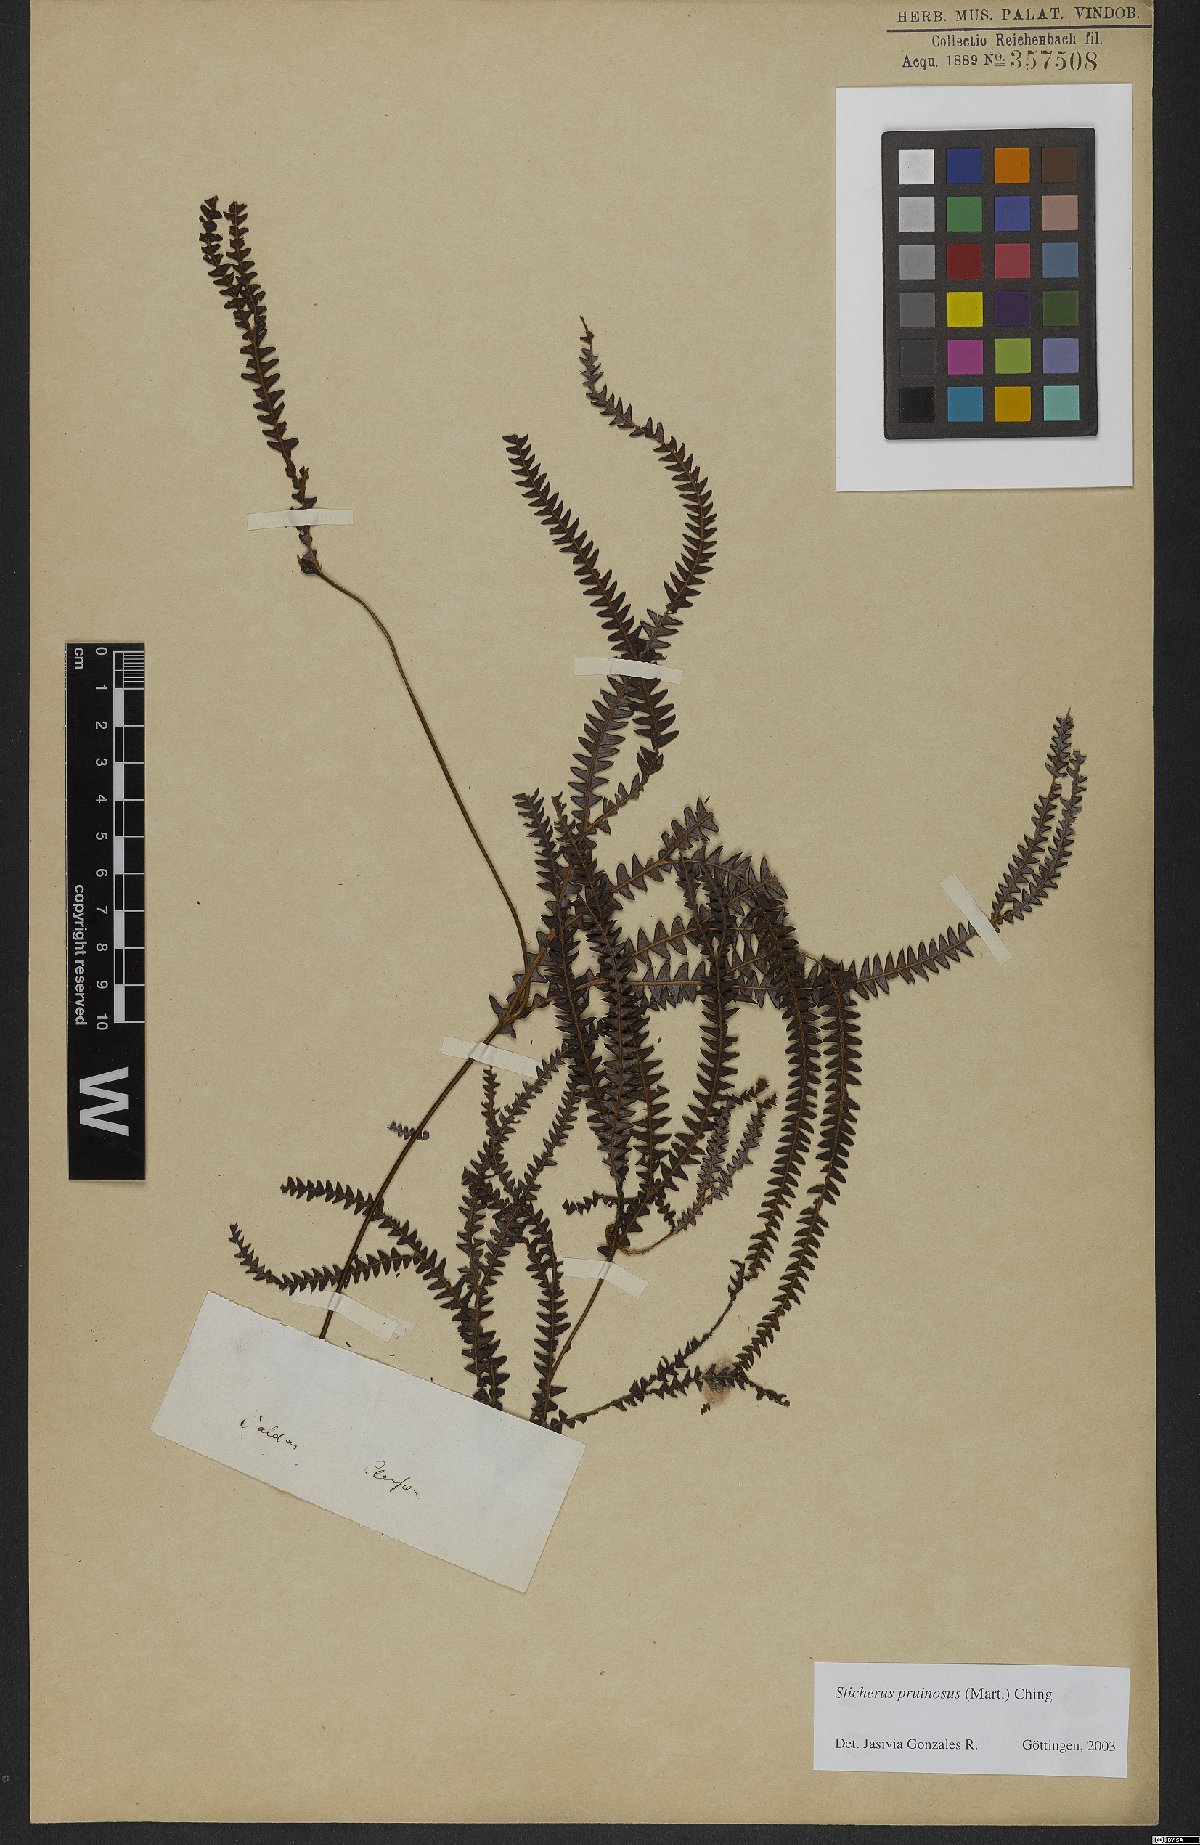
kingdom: Plantae
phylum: Tracheophyta
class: Polypodiopsida
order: Gleicheniales
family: Gleicheniaceae
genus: Sticherus
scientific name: Sticherus pruinosus
